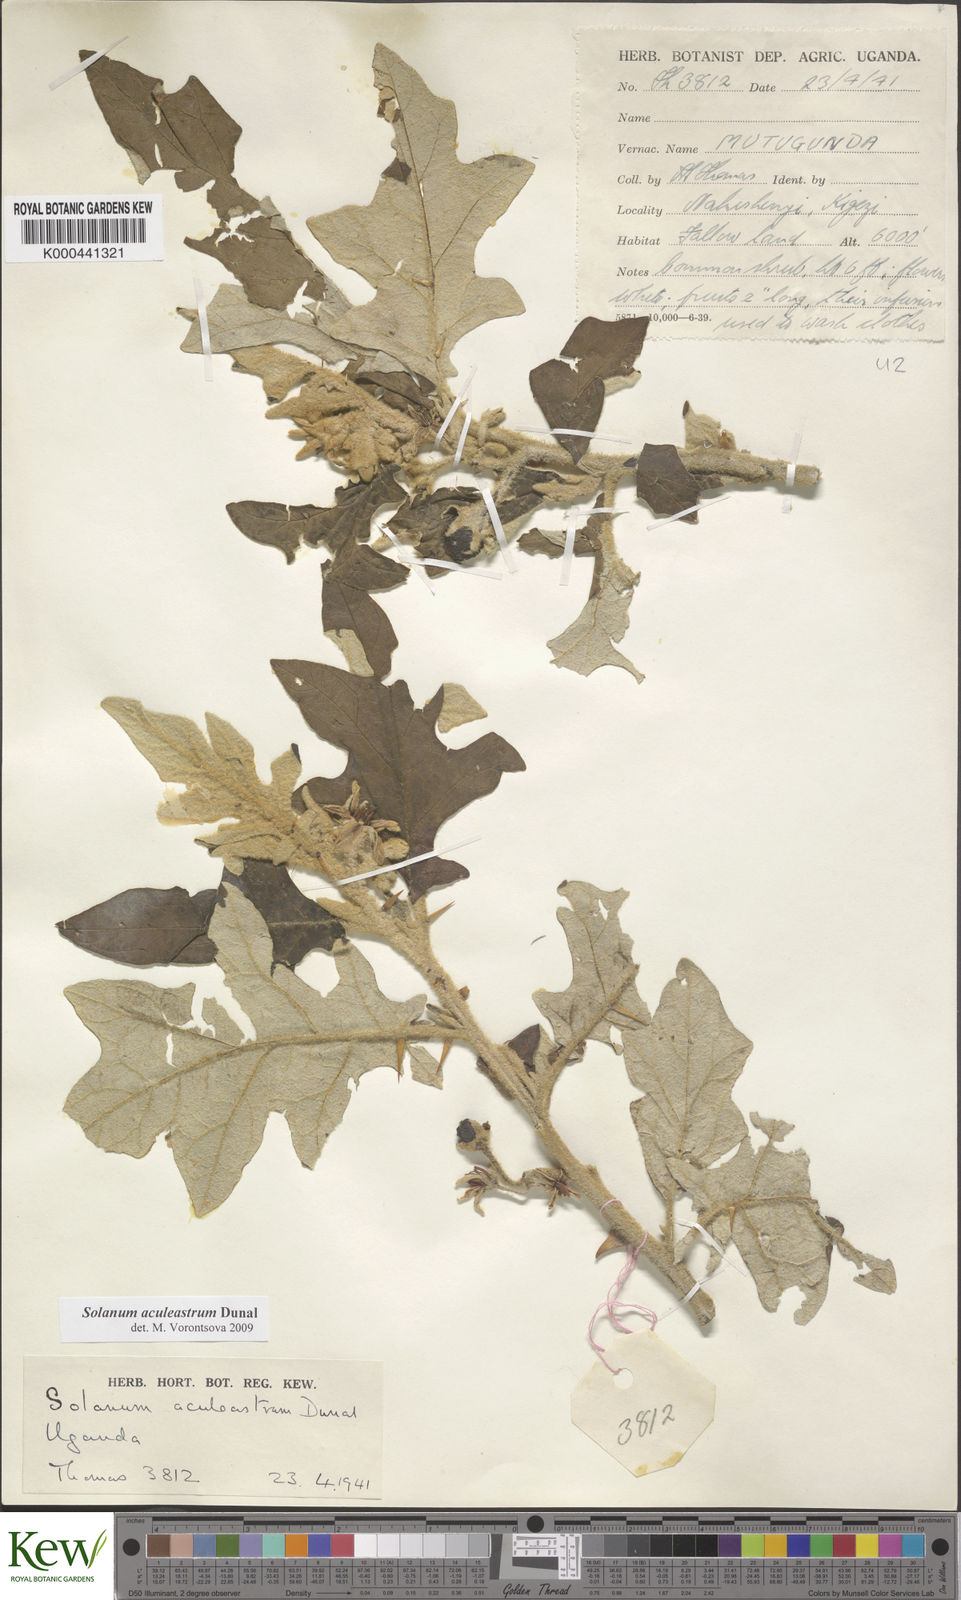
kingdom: Plantae
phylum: Tracheophyta
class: Magnoliopsida
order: Solanales
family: Solanaceae
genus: Solanum
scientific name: Solanum aculeastrum
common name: Goat bitter-apple
